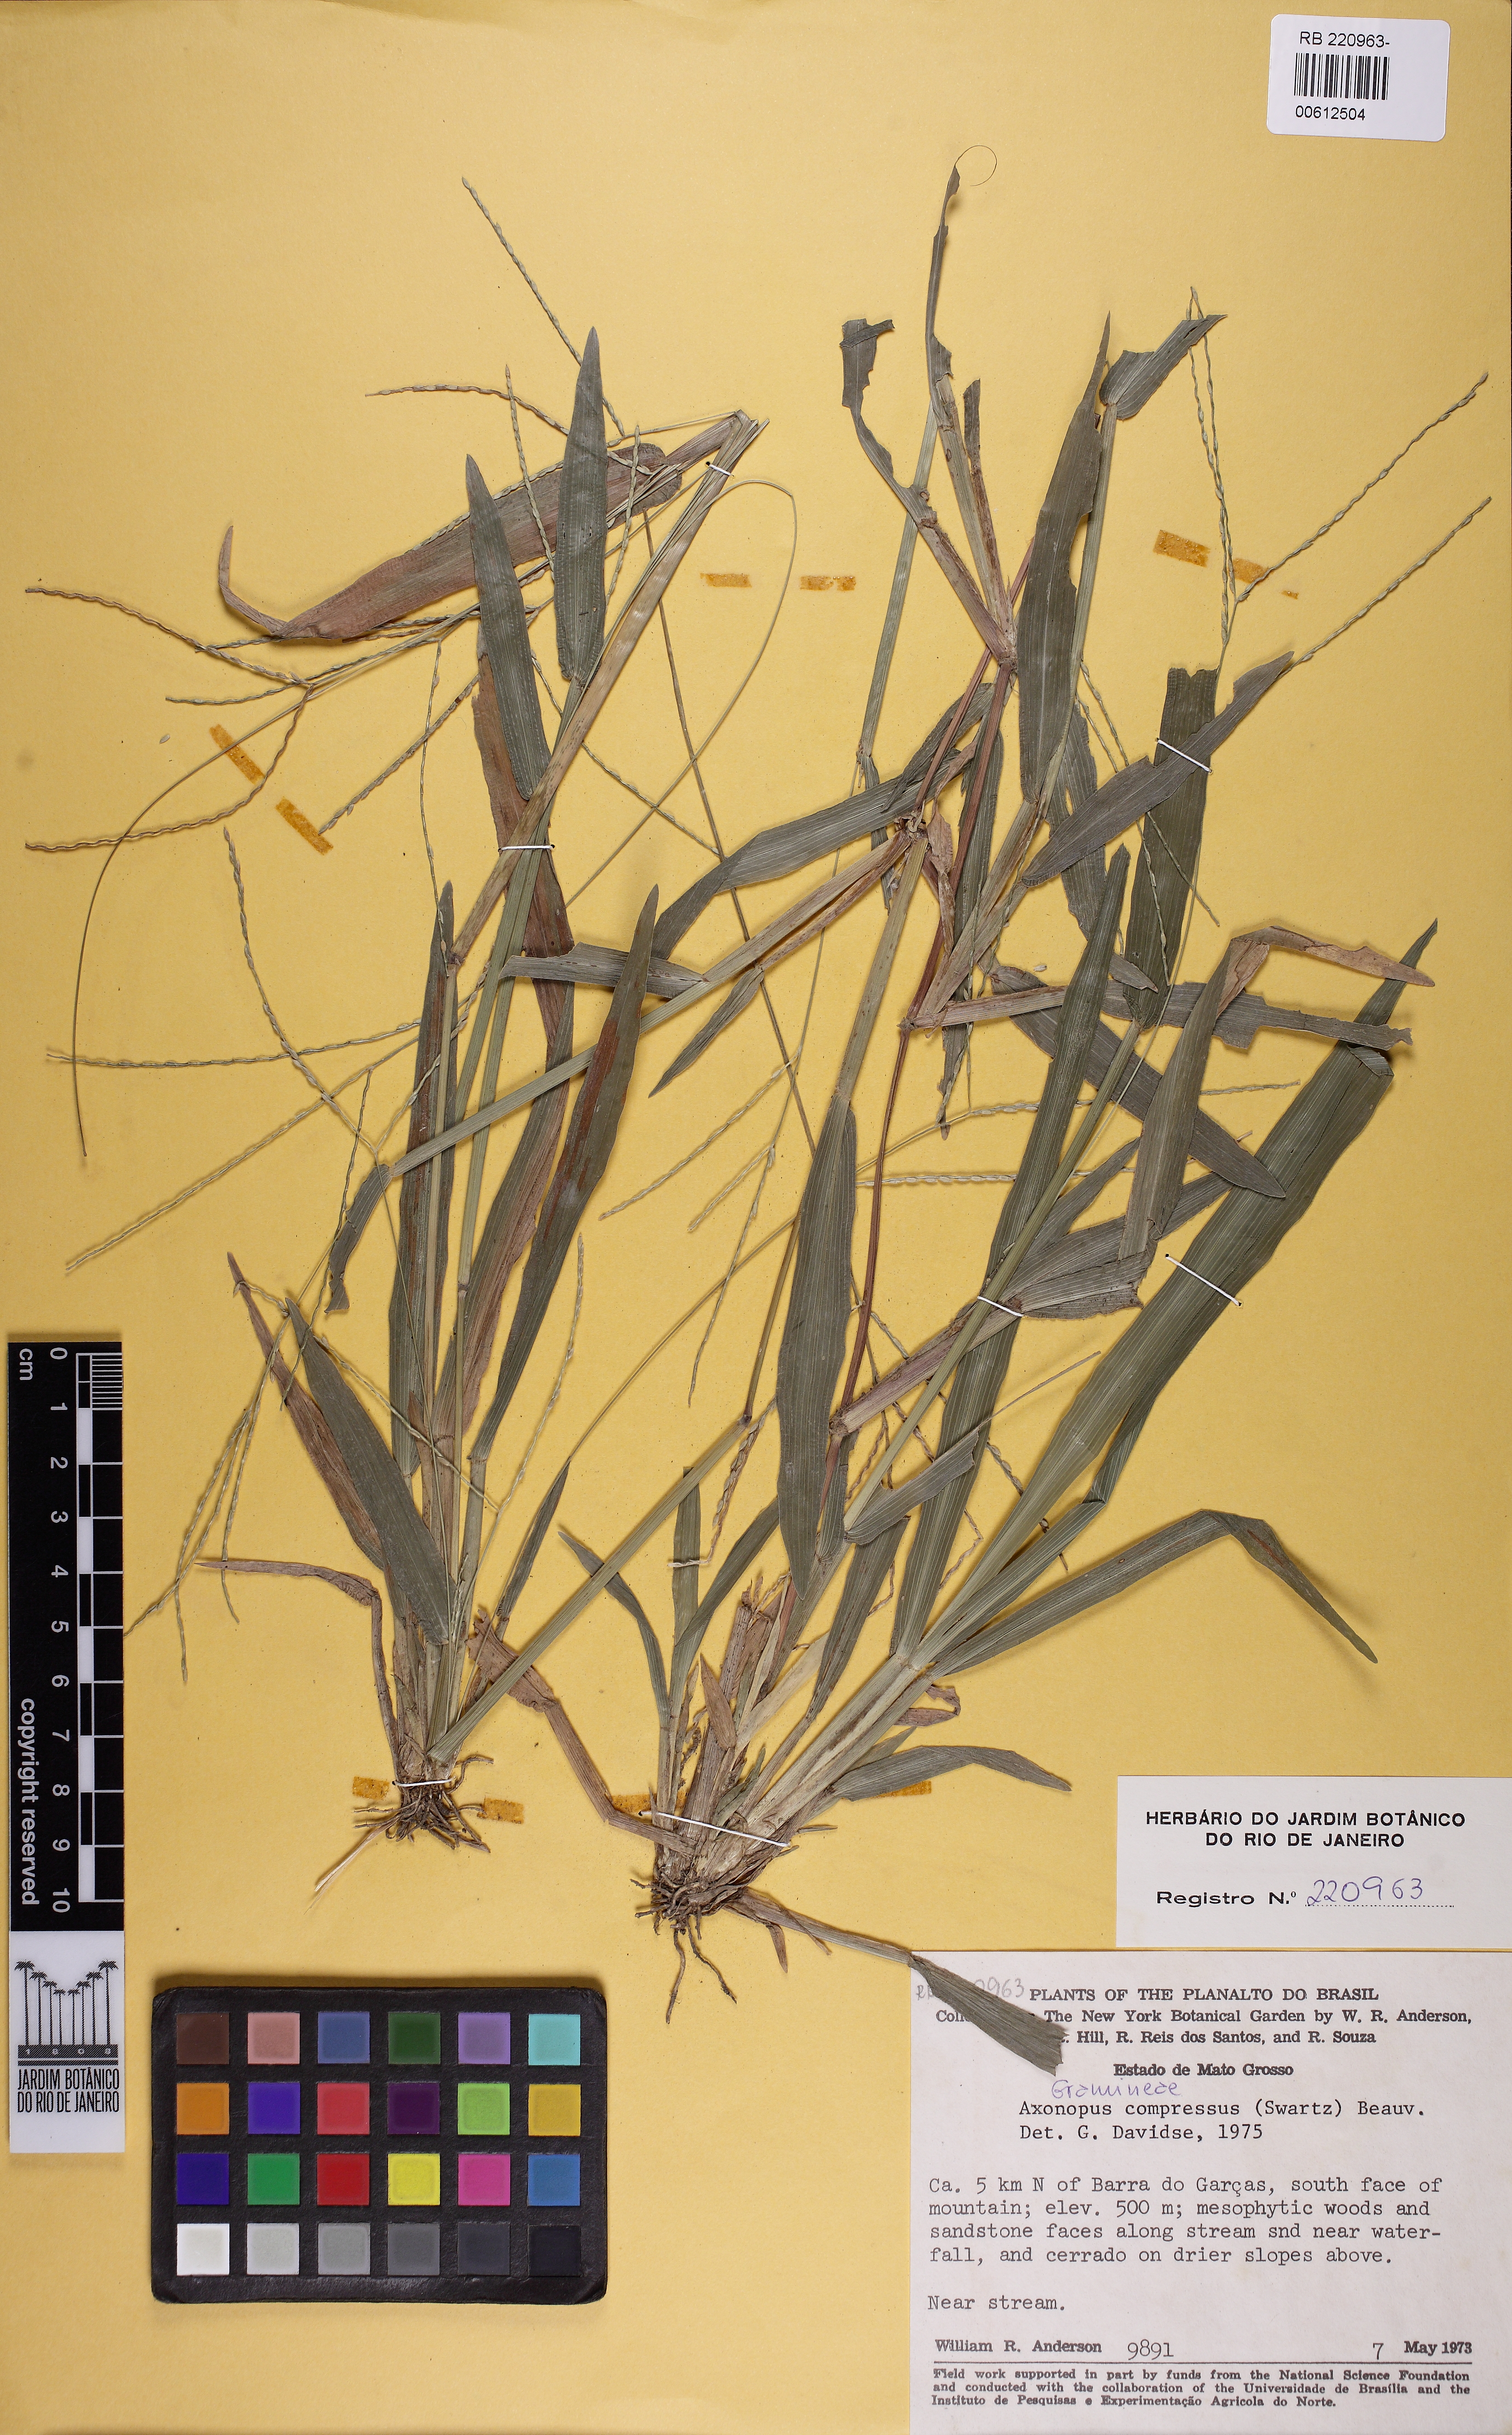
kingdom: Plantae
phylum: Tracheophyta
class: Liliopsida
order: Poales
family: Poaceae
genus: Axonopus
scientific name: Axonopus compressus
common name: American carpet grass
